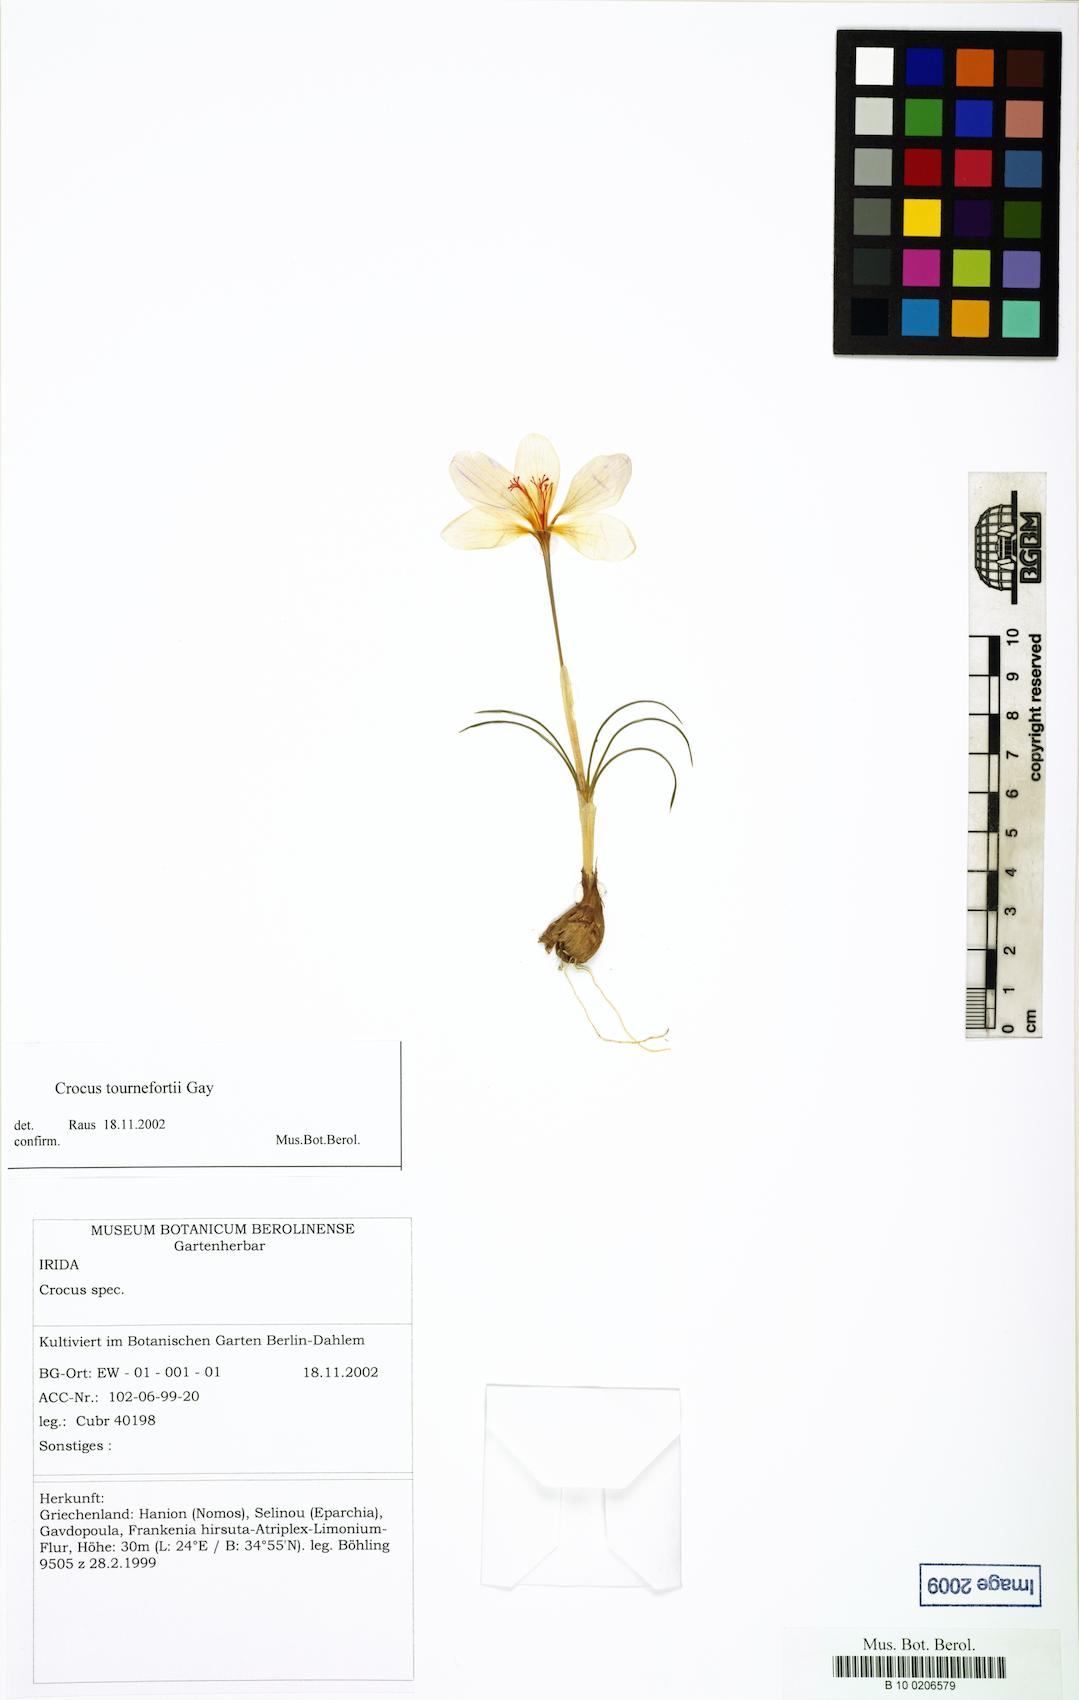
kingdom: Plantae
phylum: Tracheophyta
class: Liliopsida
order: Asparagales
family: Iridaceae
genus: Crocus
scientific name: Crocus tournefortii
